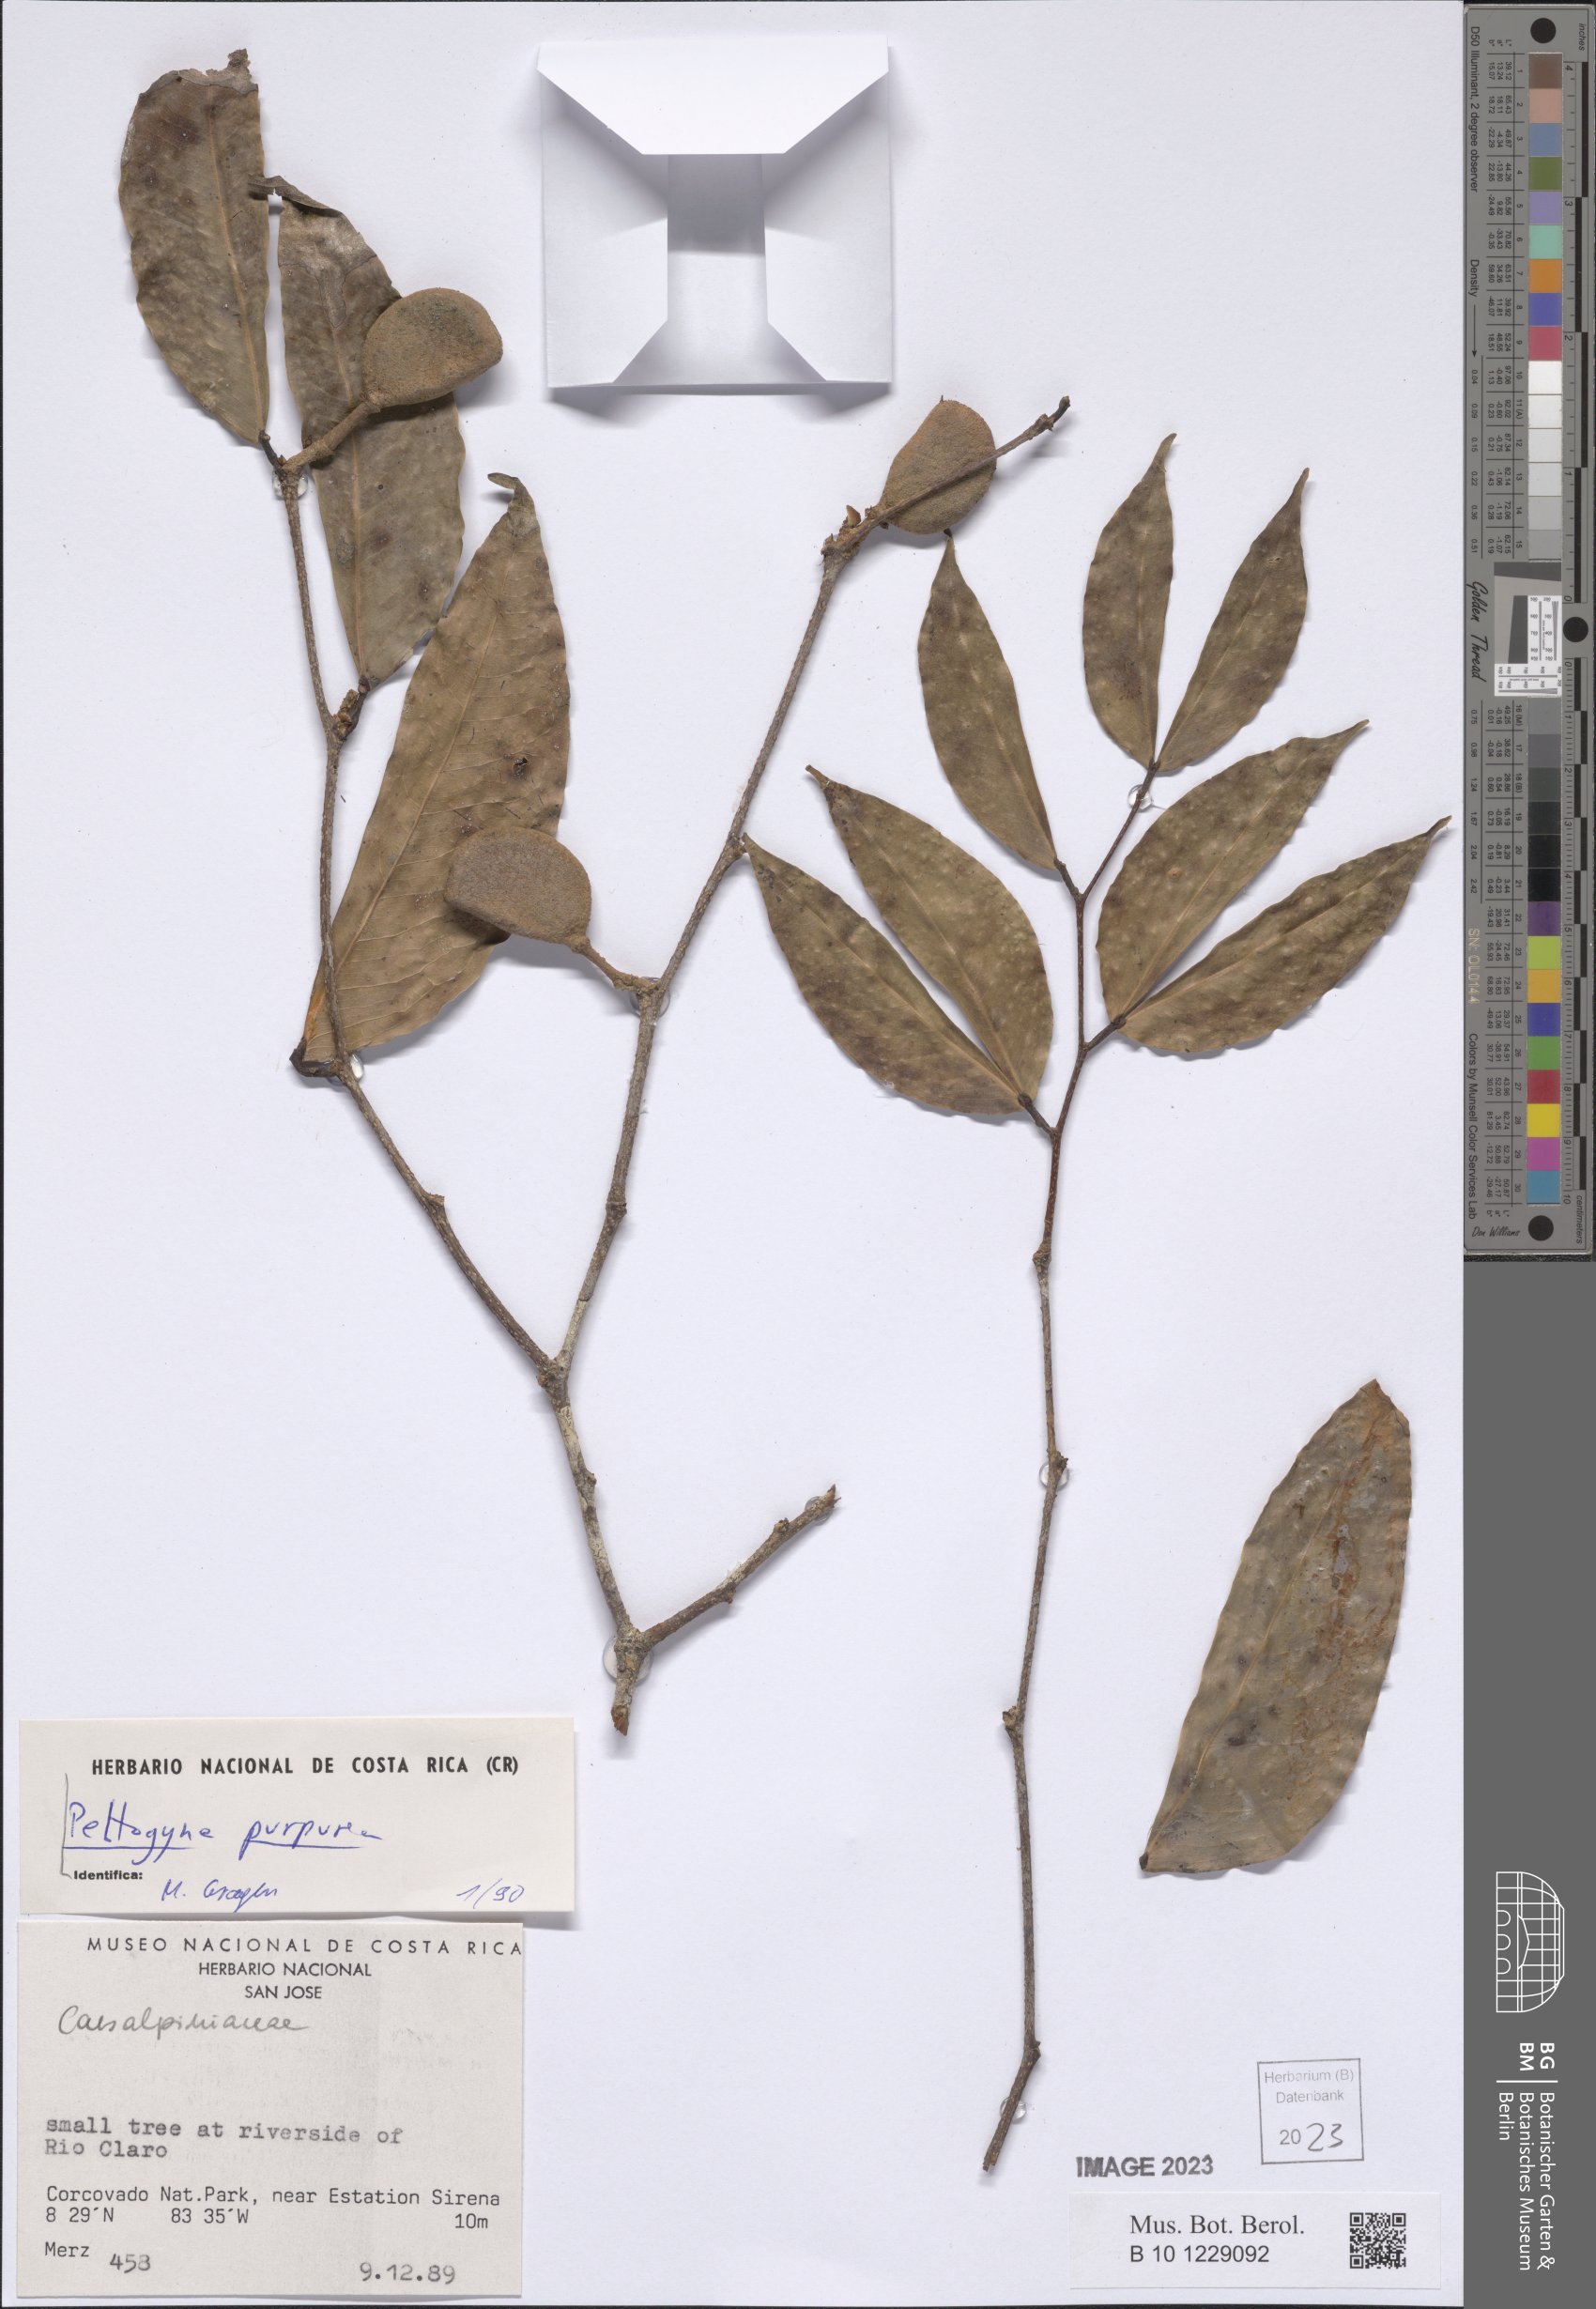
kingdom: Plantae
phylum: Tracheophyta
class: Magnoliopsida
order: Fabales
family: Fabaceae
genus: Peltogyne
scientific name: Peltogyne purpurea
